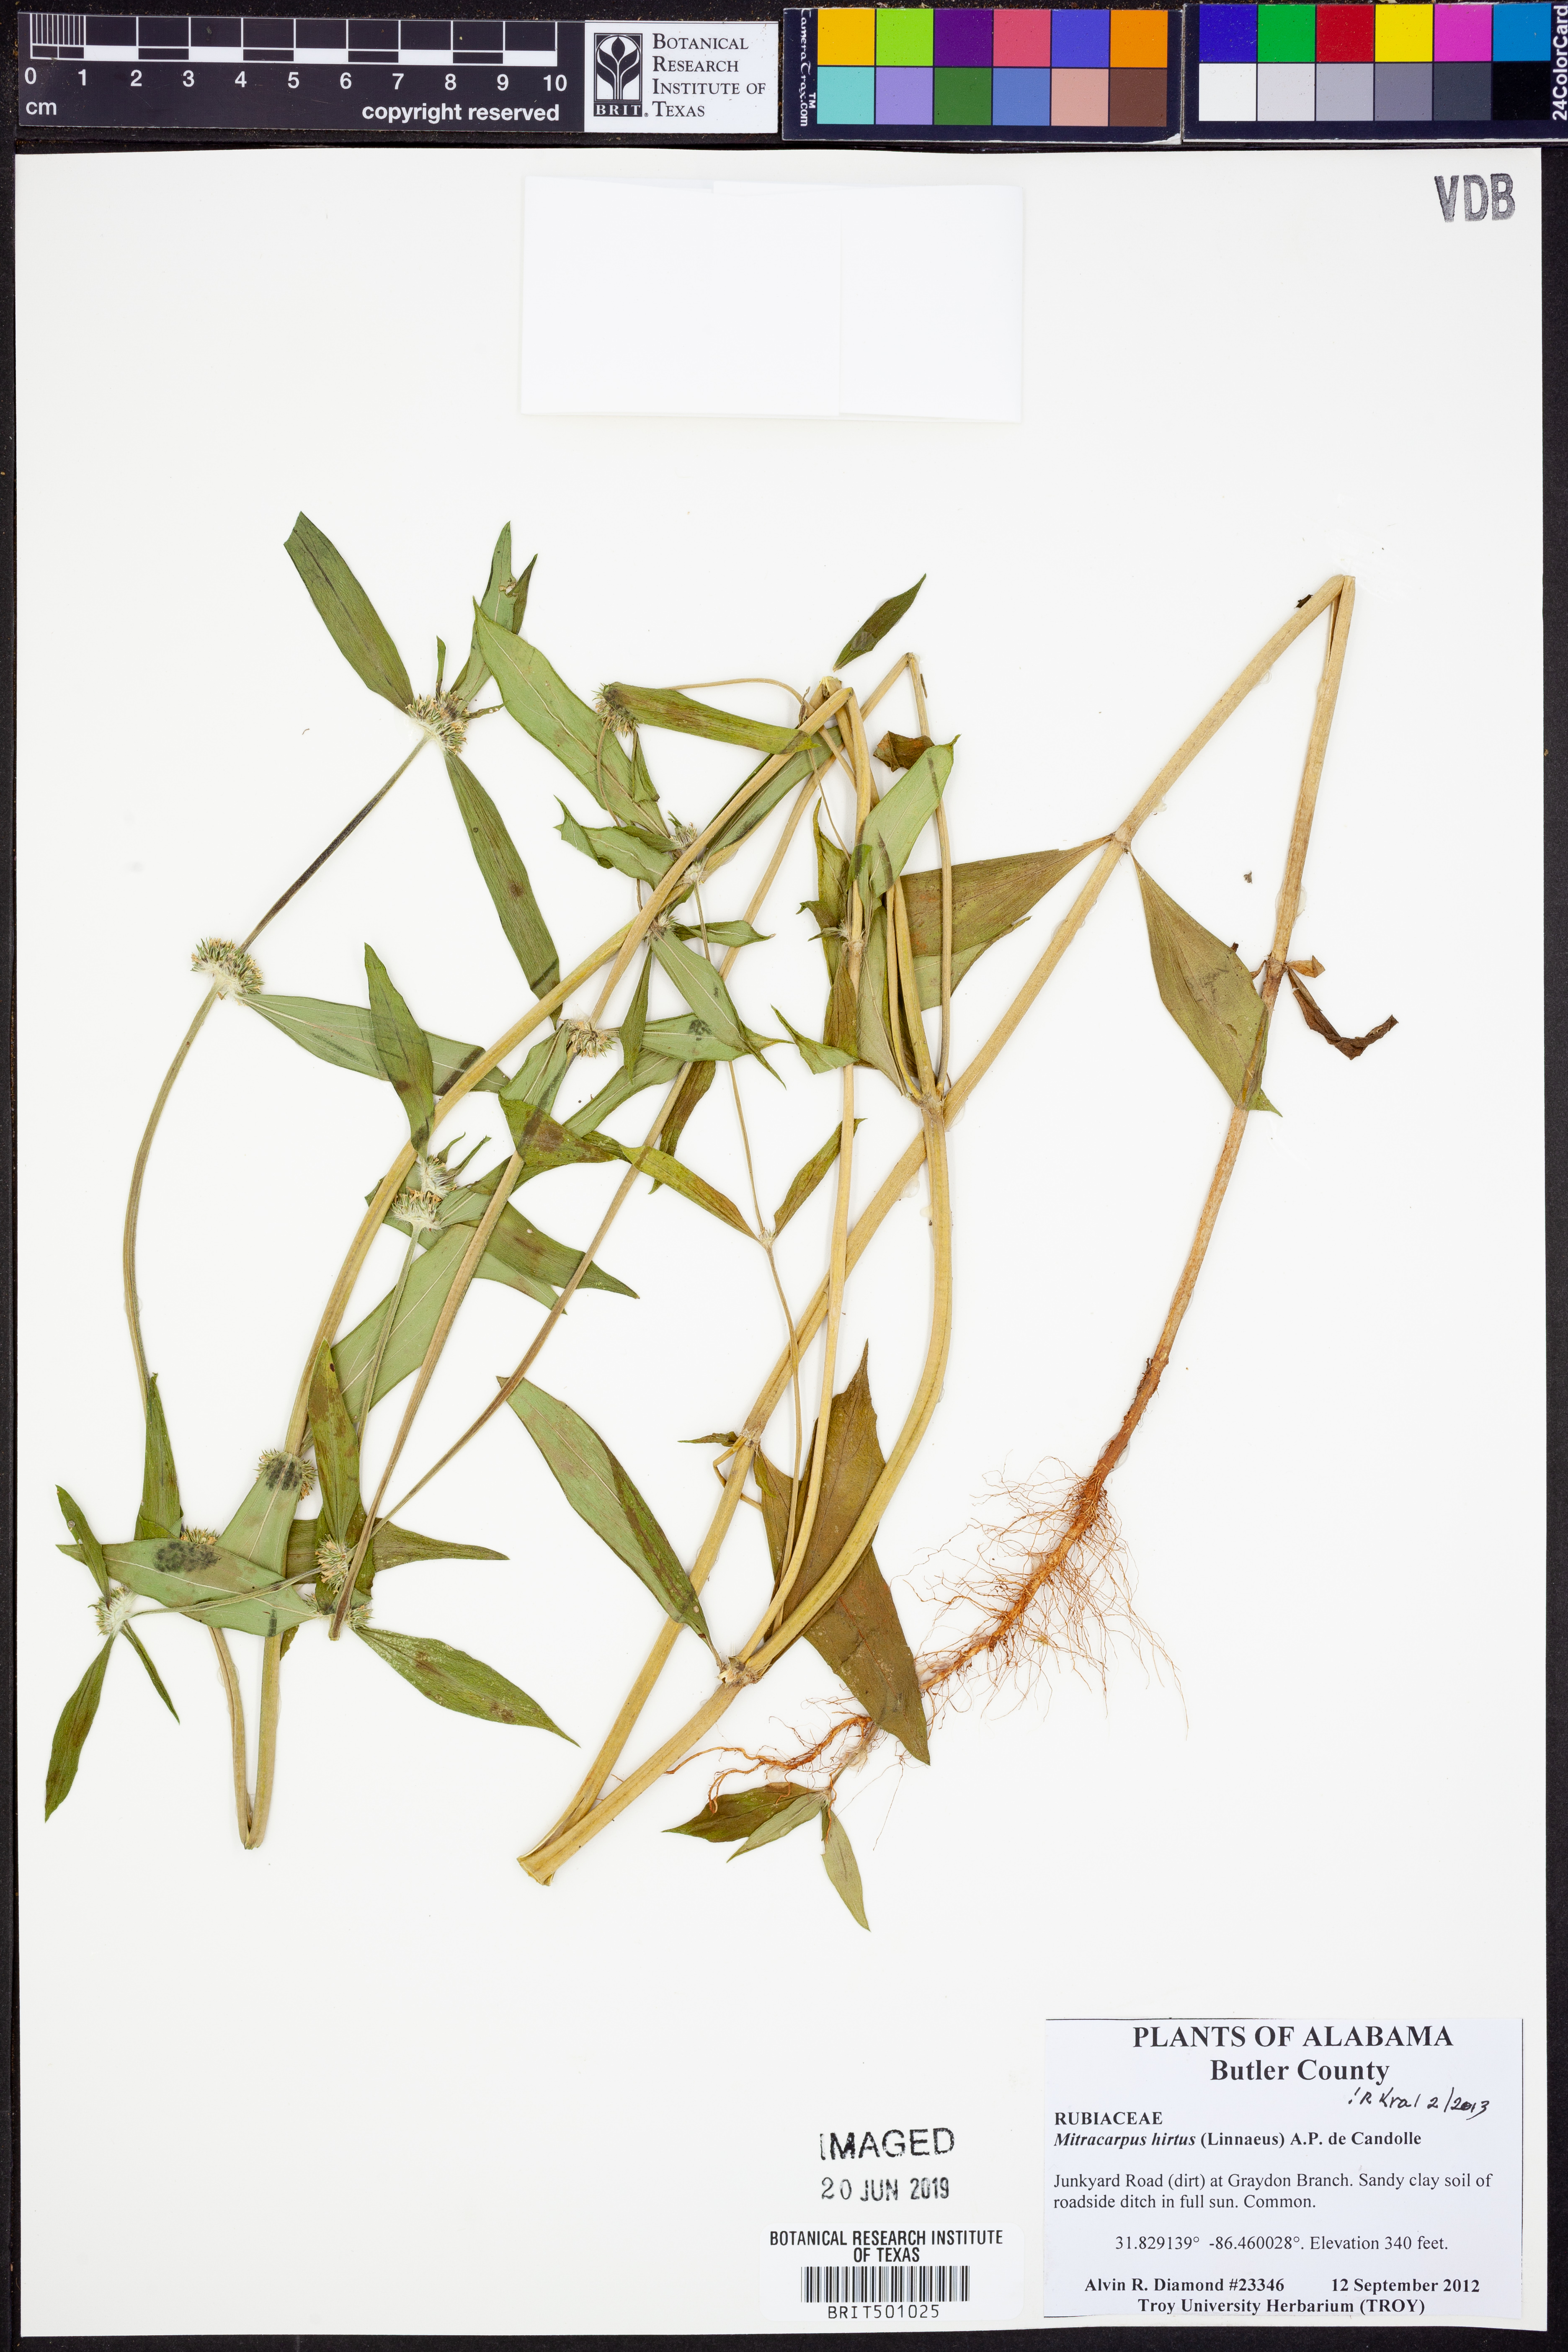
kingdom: Plantae
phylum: Tracheophyta
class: Magnoliopsida
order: Gentianales
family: Rubiaceae
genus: Mitracarpus
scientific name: Mitracarpus hirtus
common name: Tropical girdlepod
